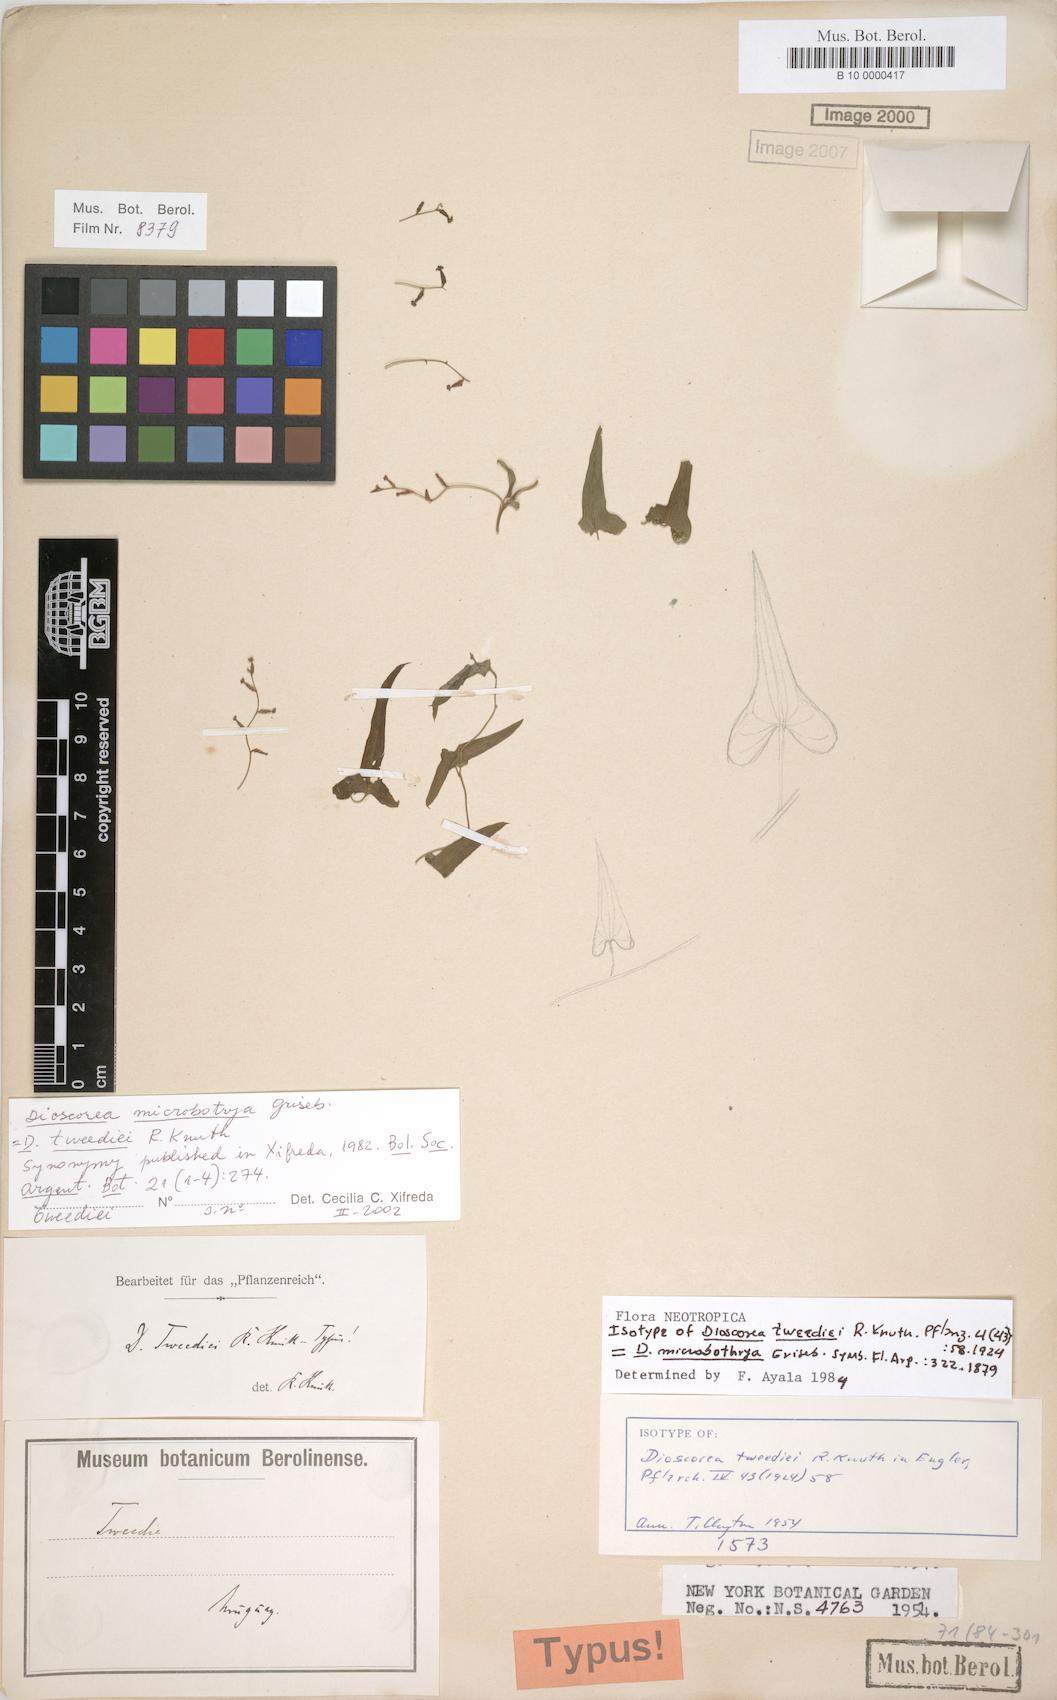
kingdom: Plantae
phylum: Tracheophyta
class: Liliopsida
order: Dioscoreales
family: Dioscoreaceae
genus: Dioscorea
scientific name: Dioscorea microbotrya
